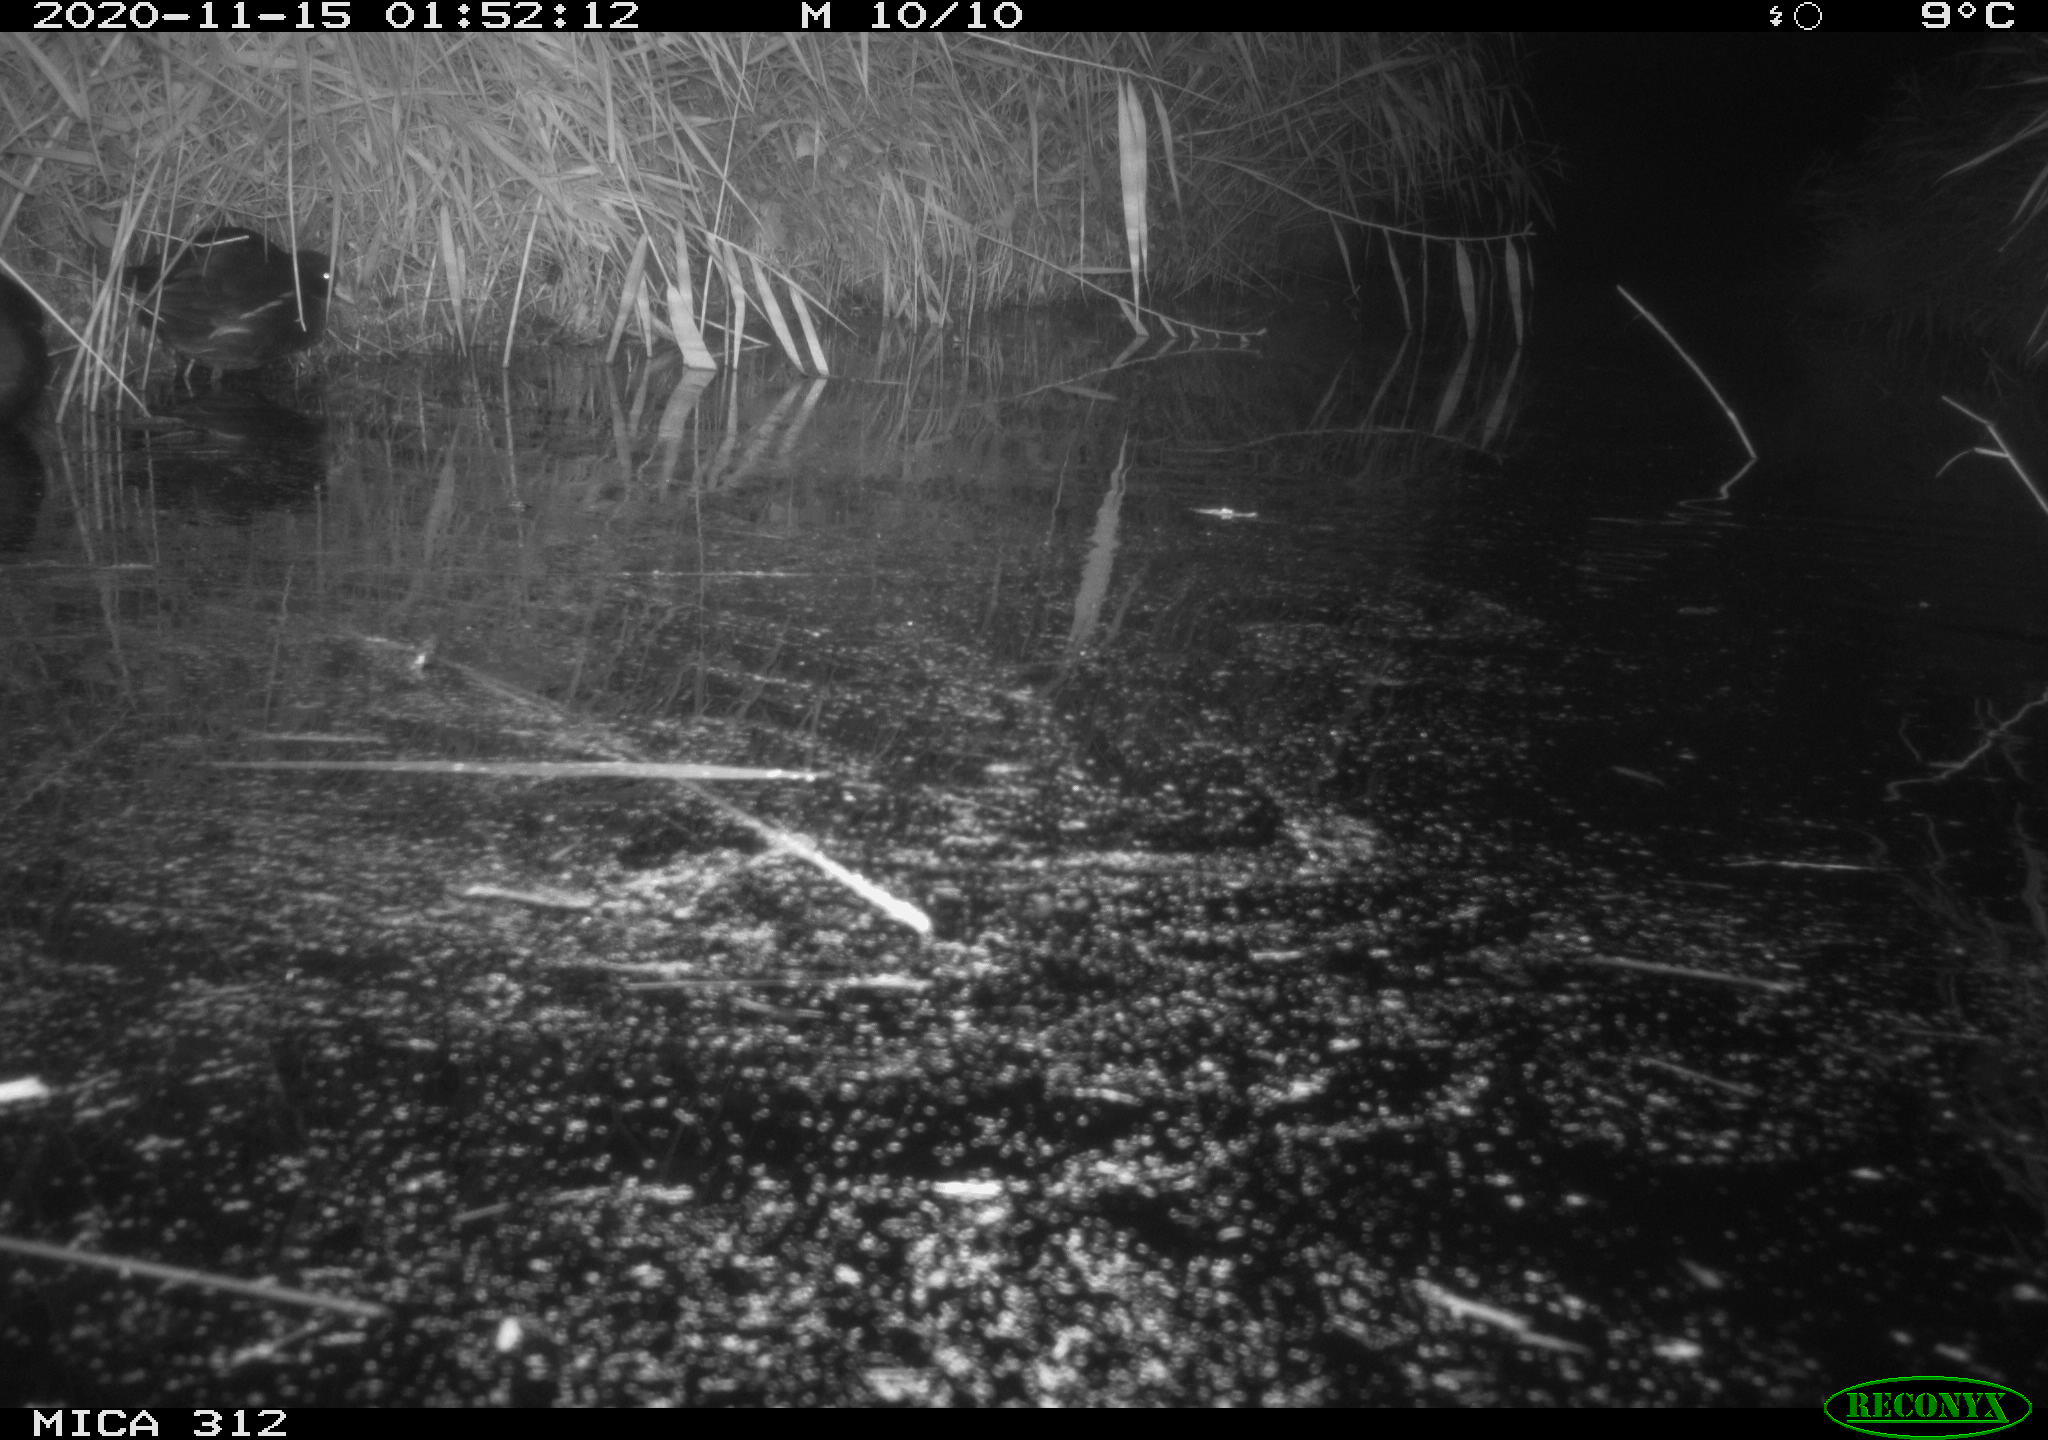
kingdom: Animalia
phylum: Chordata
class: Mammalia
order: Rodentia
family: Muridae
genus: Rattus
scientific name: Rattus norvegicus
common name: Brown rat
